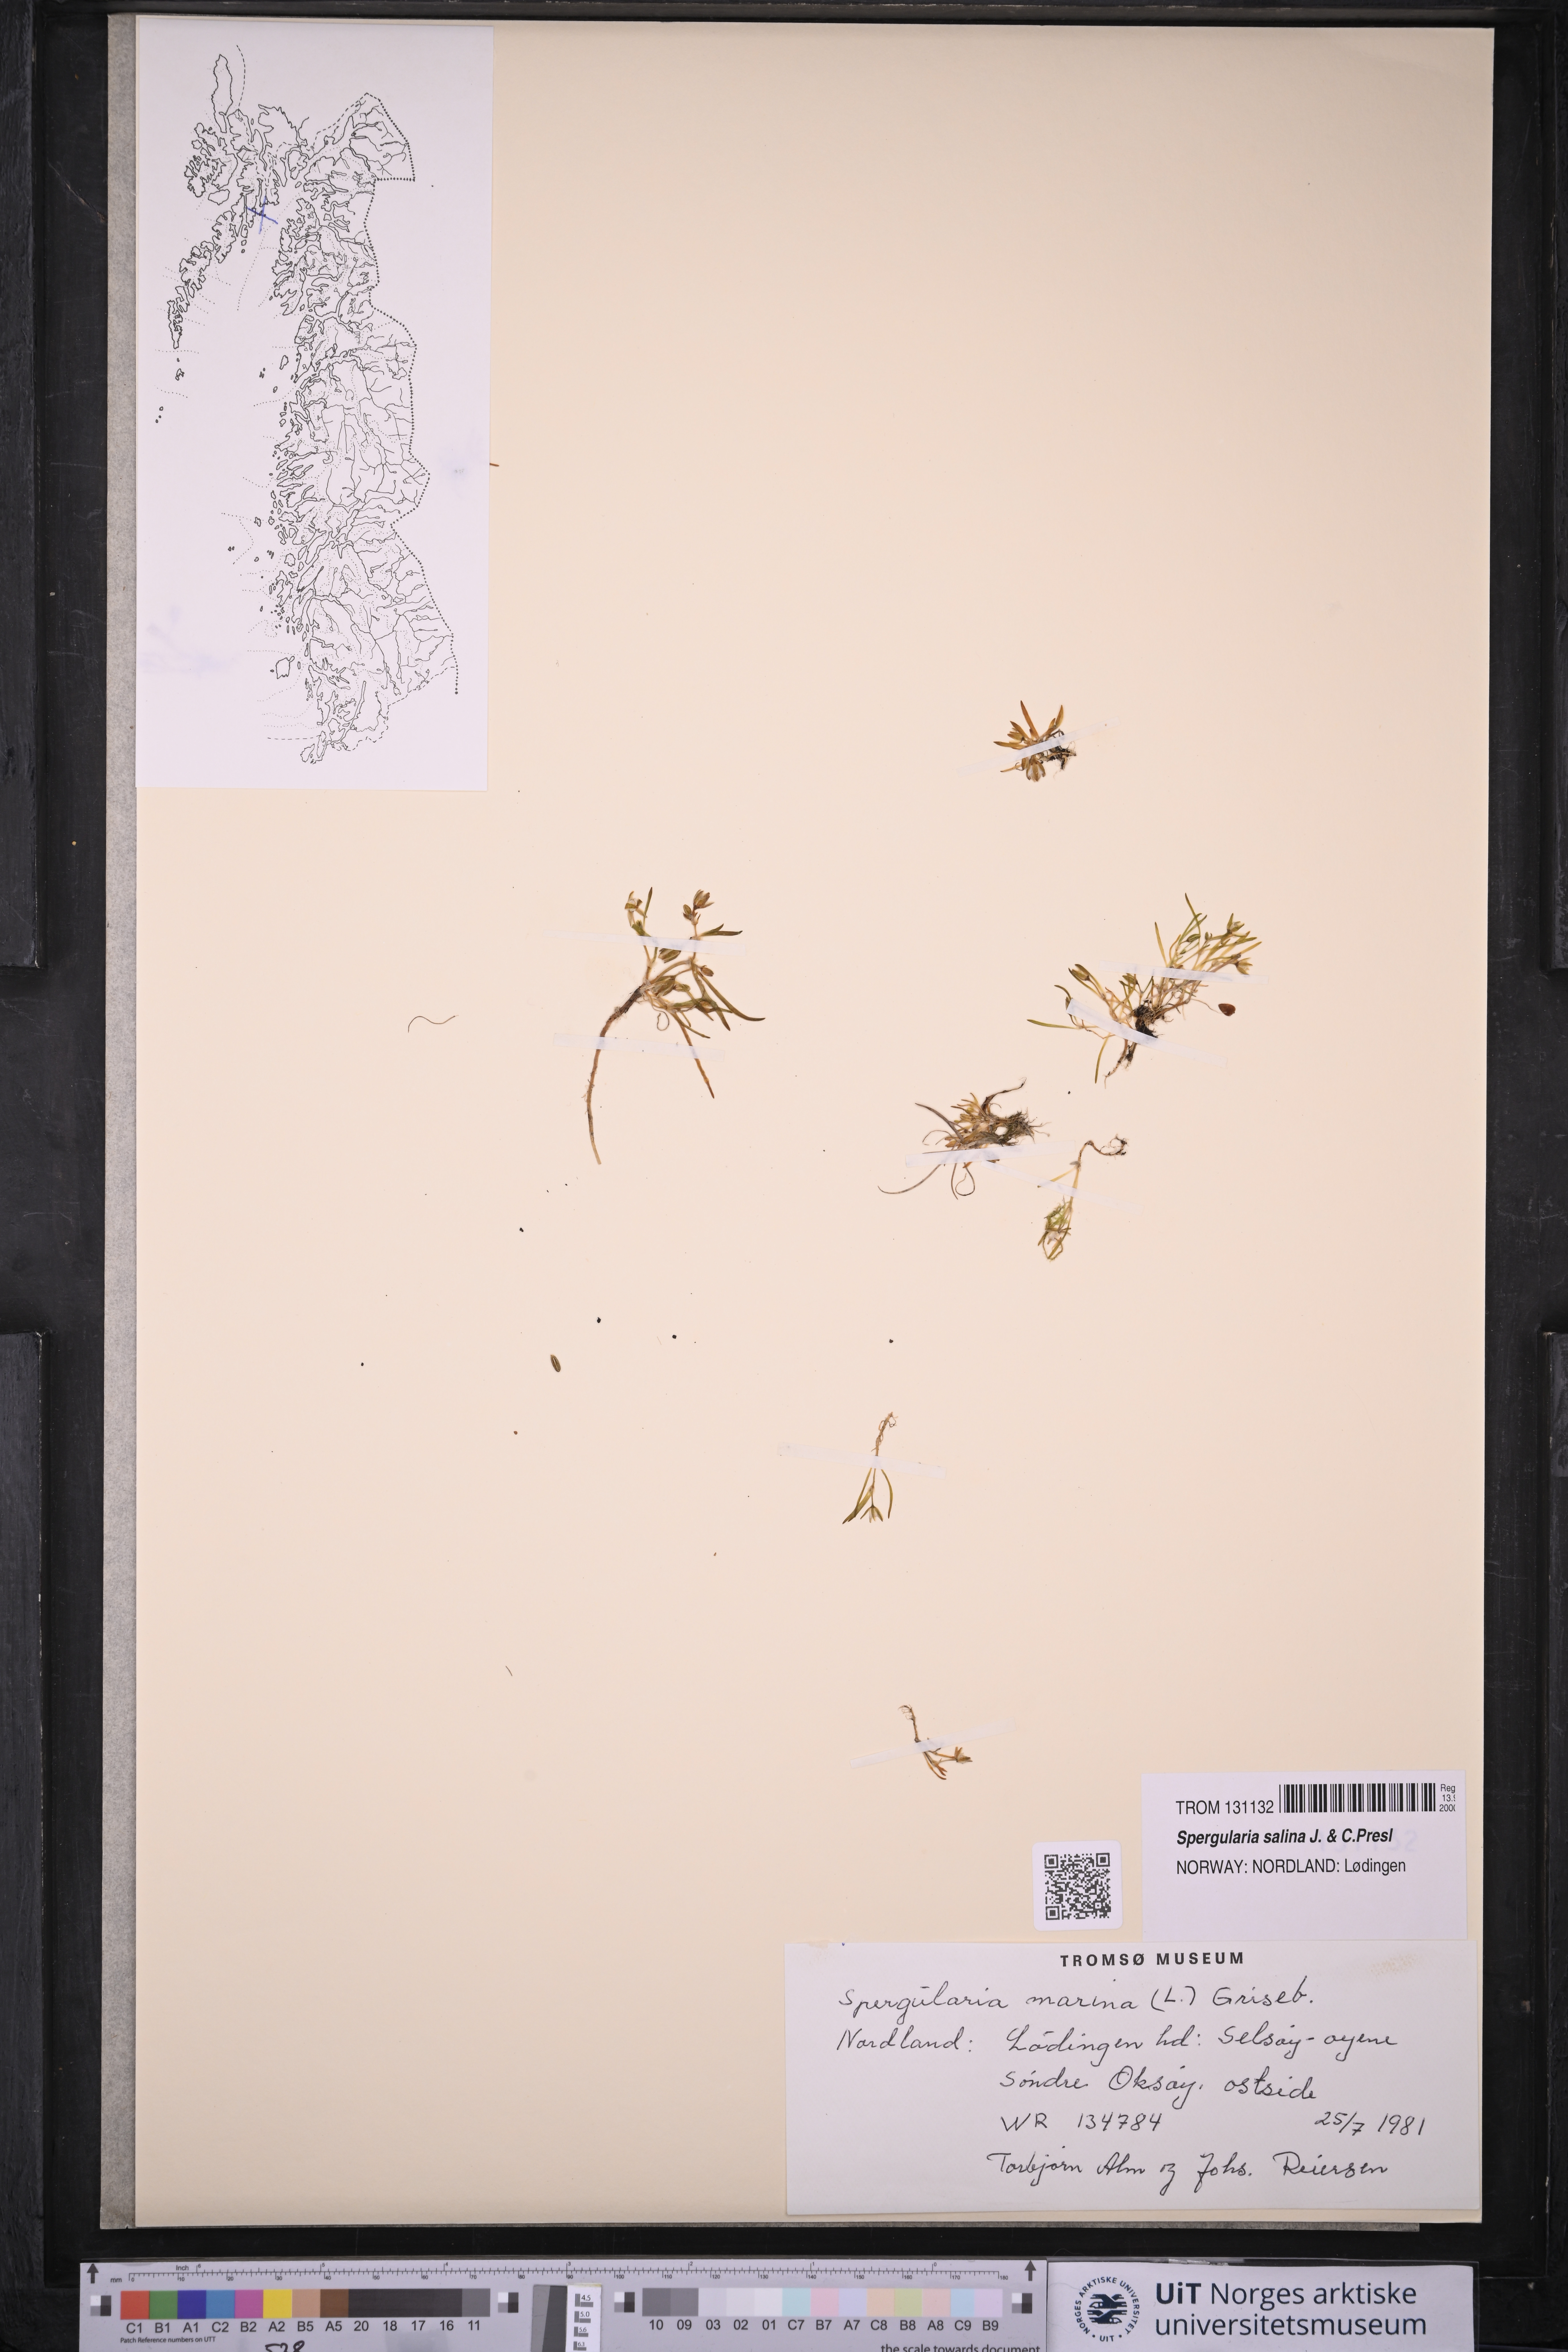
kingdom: Plantae
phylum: Tracheophyta
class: Magnoliopsida
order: Caryophyllales
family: Caryophyllaceae
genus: Spergularia
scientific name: Spergularia marina
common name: Lesser sea-spurrey
